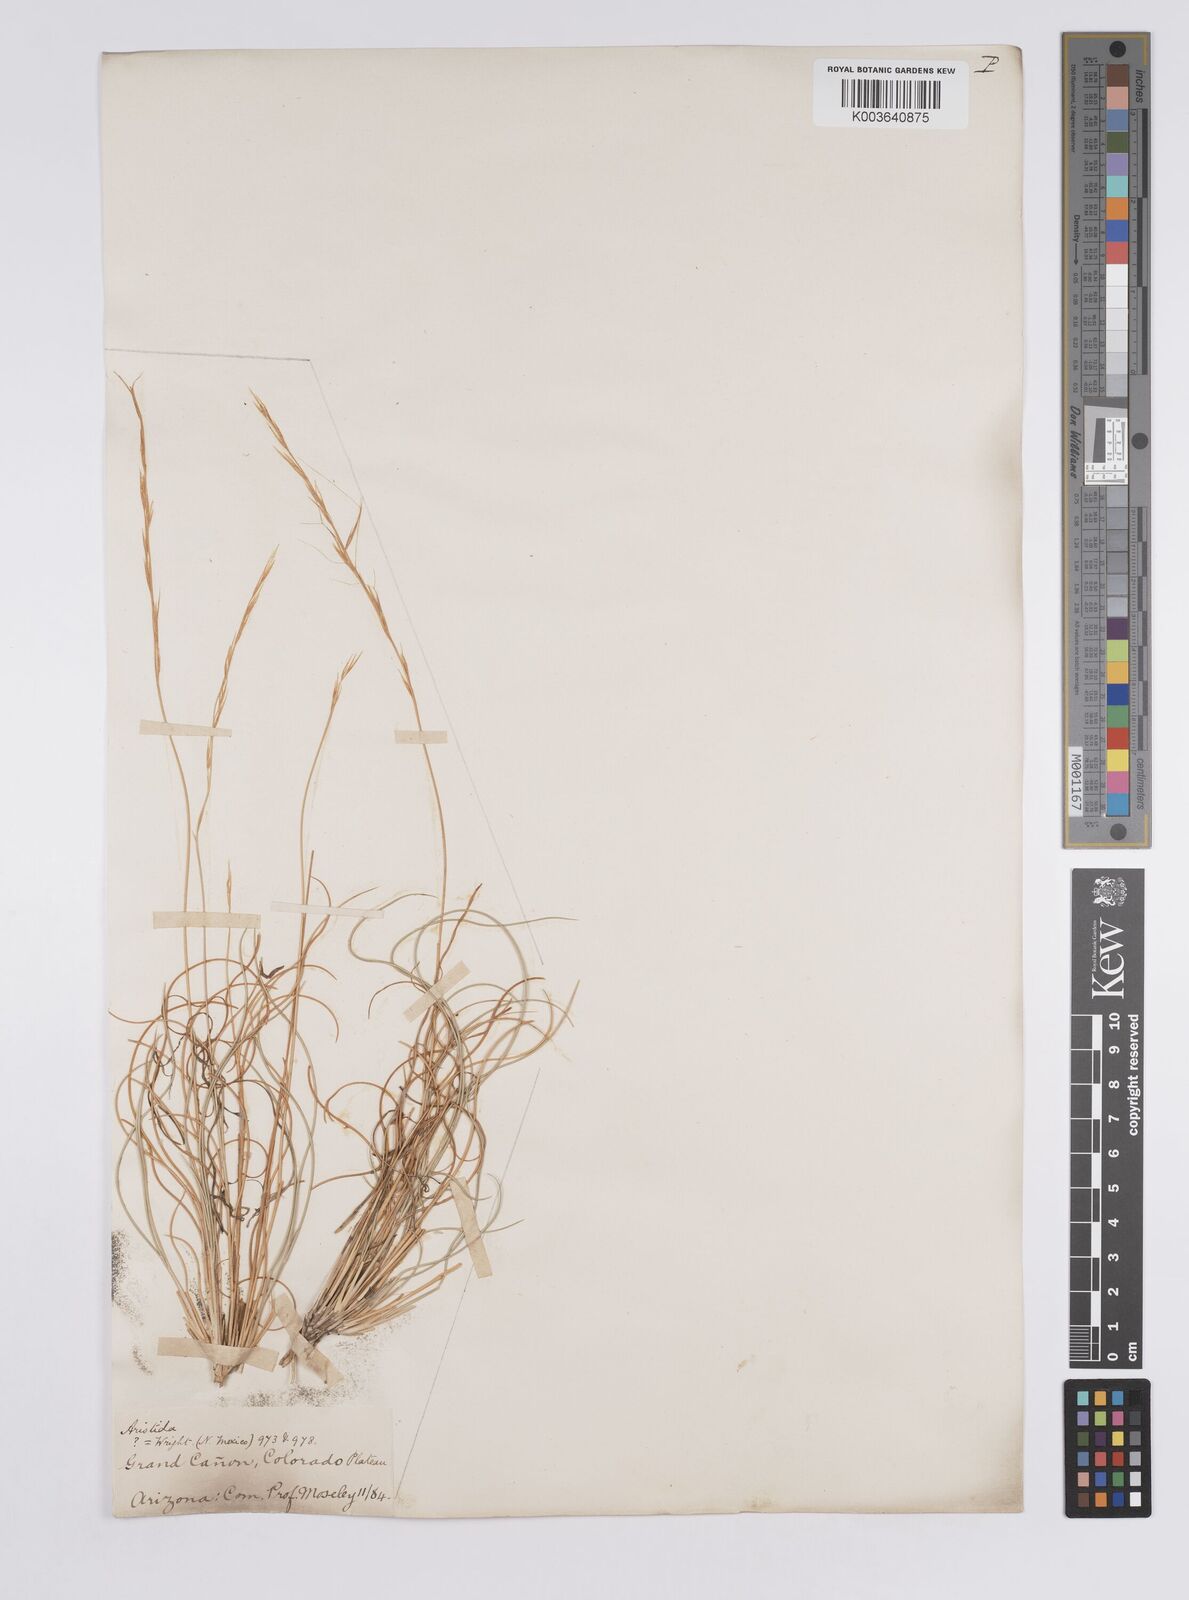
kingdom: Plantae
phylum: Tracheophyta
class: Liliopsida
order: Poales
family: Poaceae
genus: Aristida
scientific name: Aristida purpurea
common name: Purple threeawn
